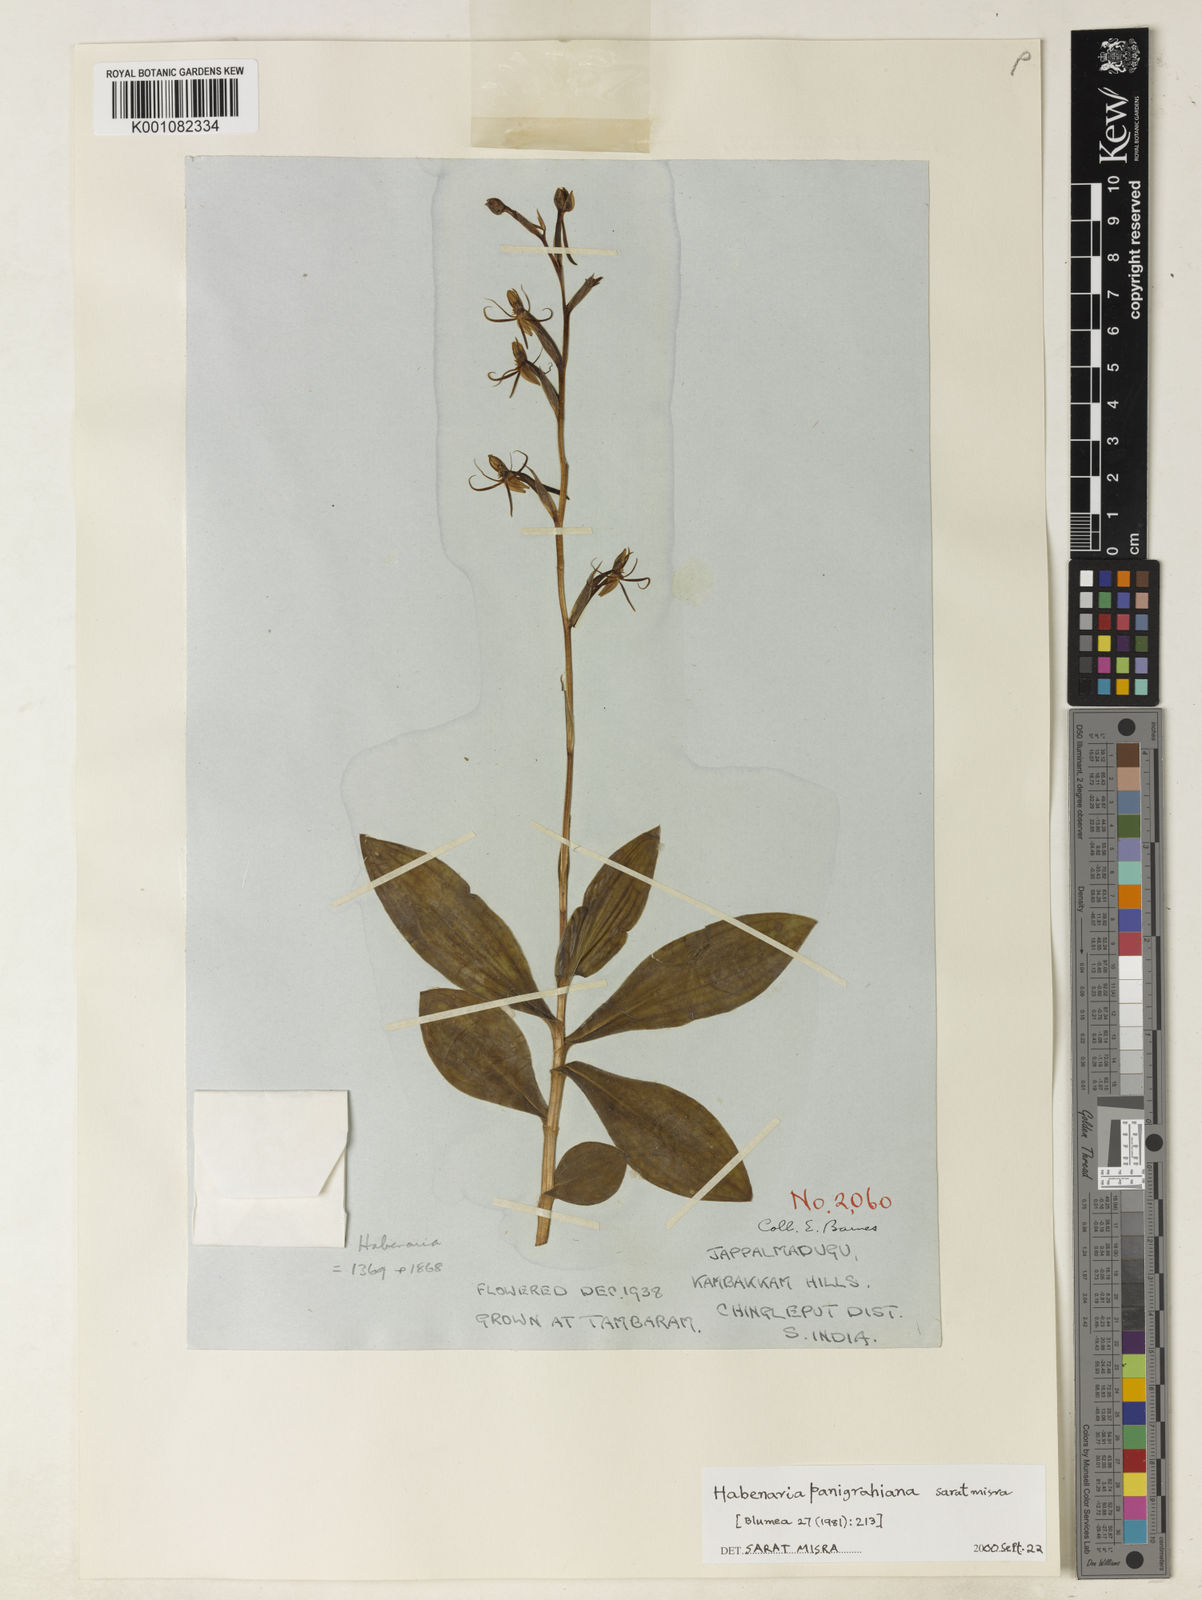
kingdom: Plantae
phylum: Tracheophyta
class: Liliopsida
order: Asparagales
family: Orchidaceae
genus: Habenaria
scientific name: Habenaria panigrahiana
